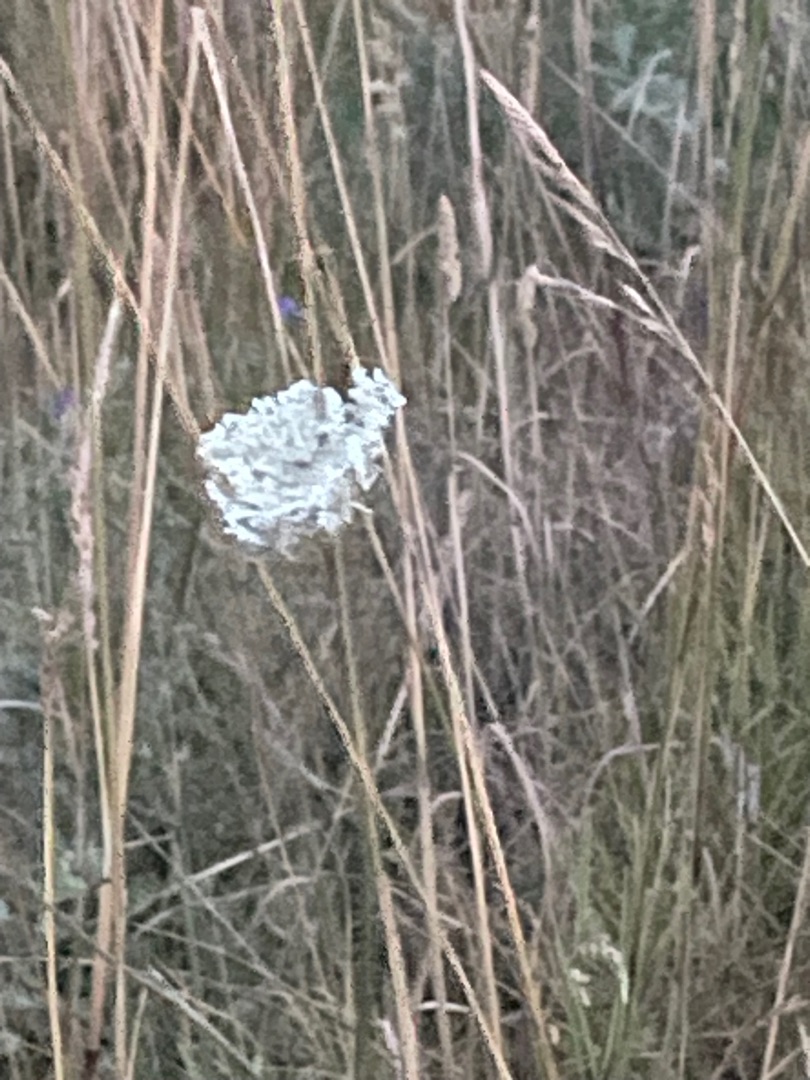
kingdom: Plantae
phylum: Tracheophyta
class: Magnoliopsida
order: Apiales
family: Apiaceae
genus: Daucus
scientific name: Daucus carota
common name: Gulerod
